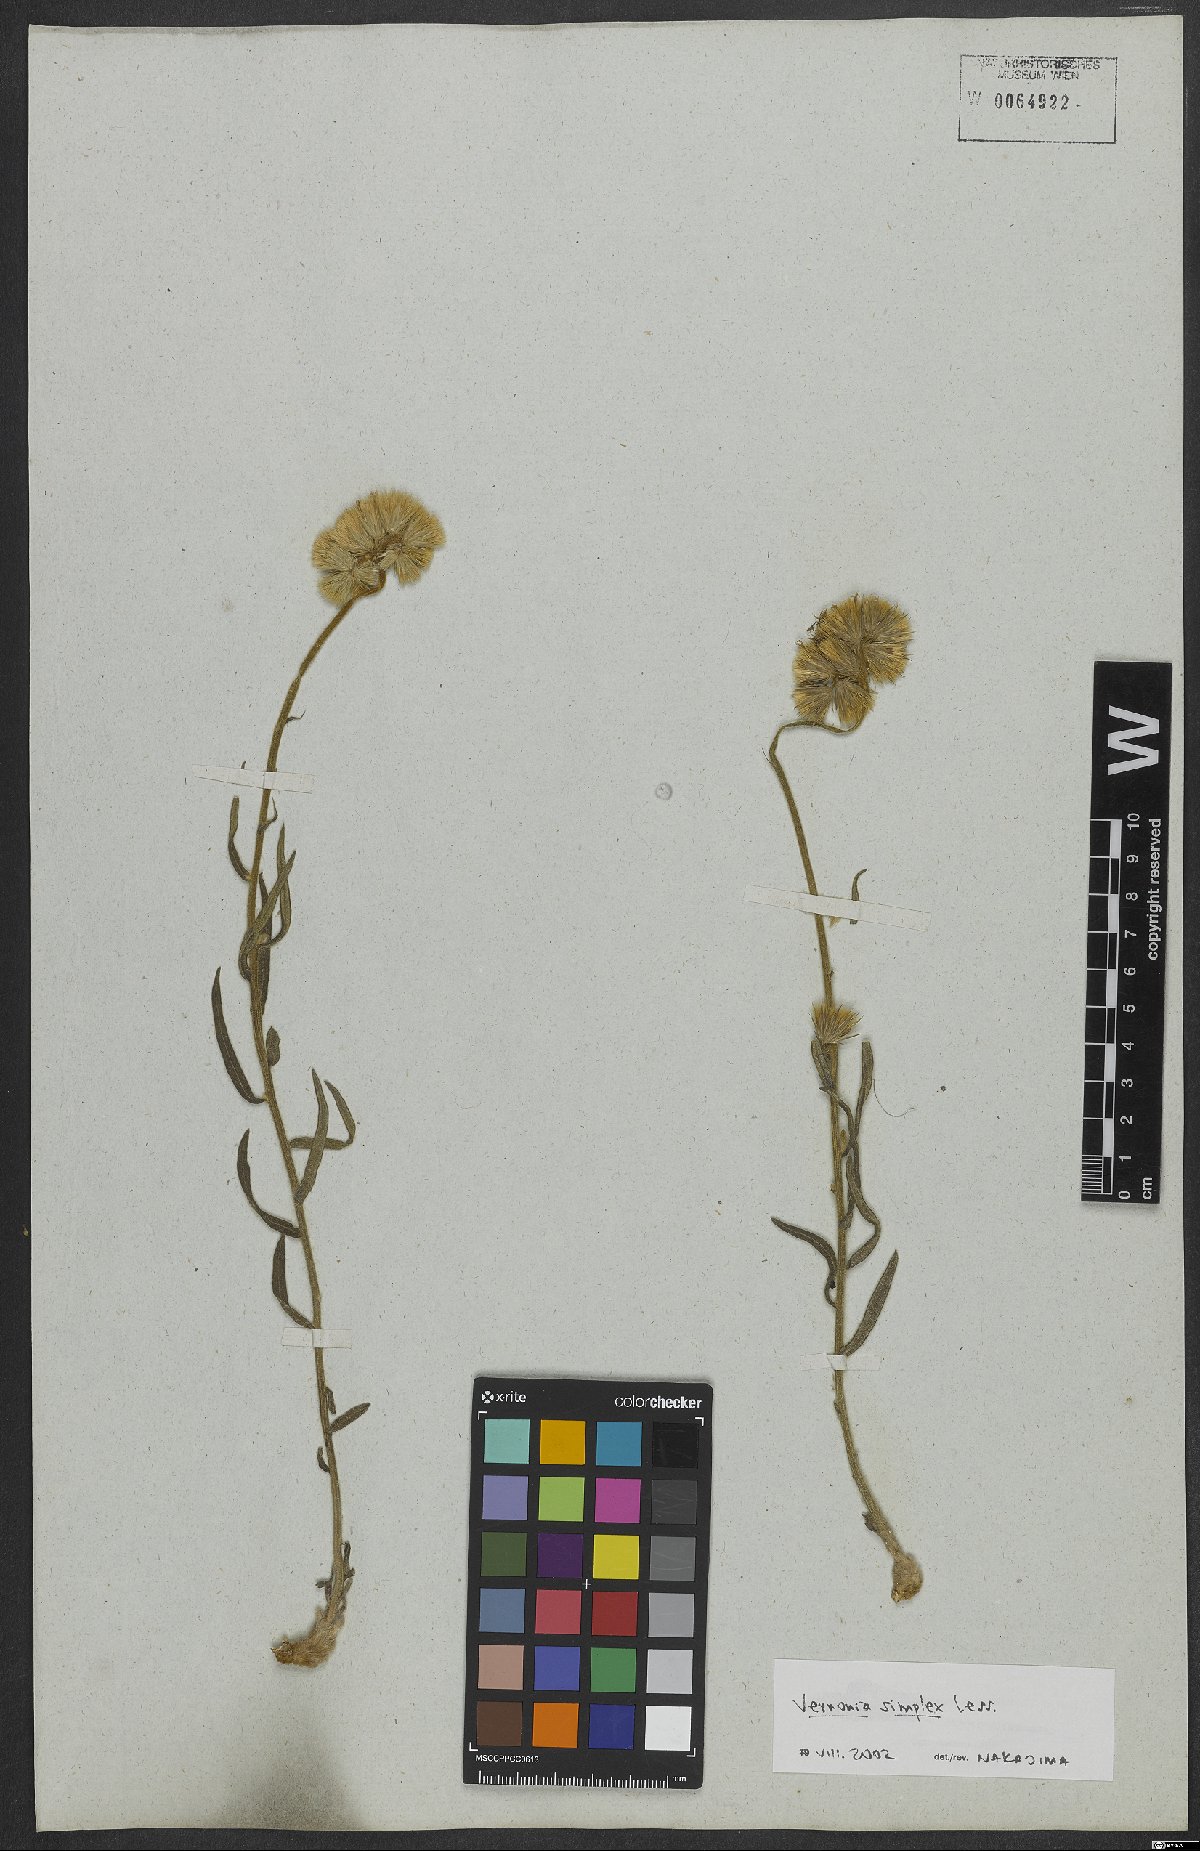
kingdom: Plantae
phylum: Tracheophyta
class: Magnoliopsida
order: Asterales
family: Asteraceae
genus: Chrysolaena
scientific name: Chrysolaena simplex
